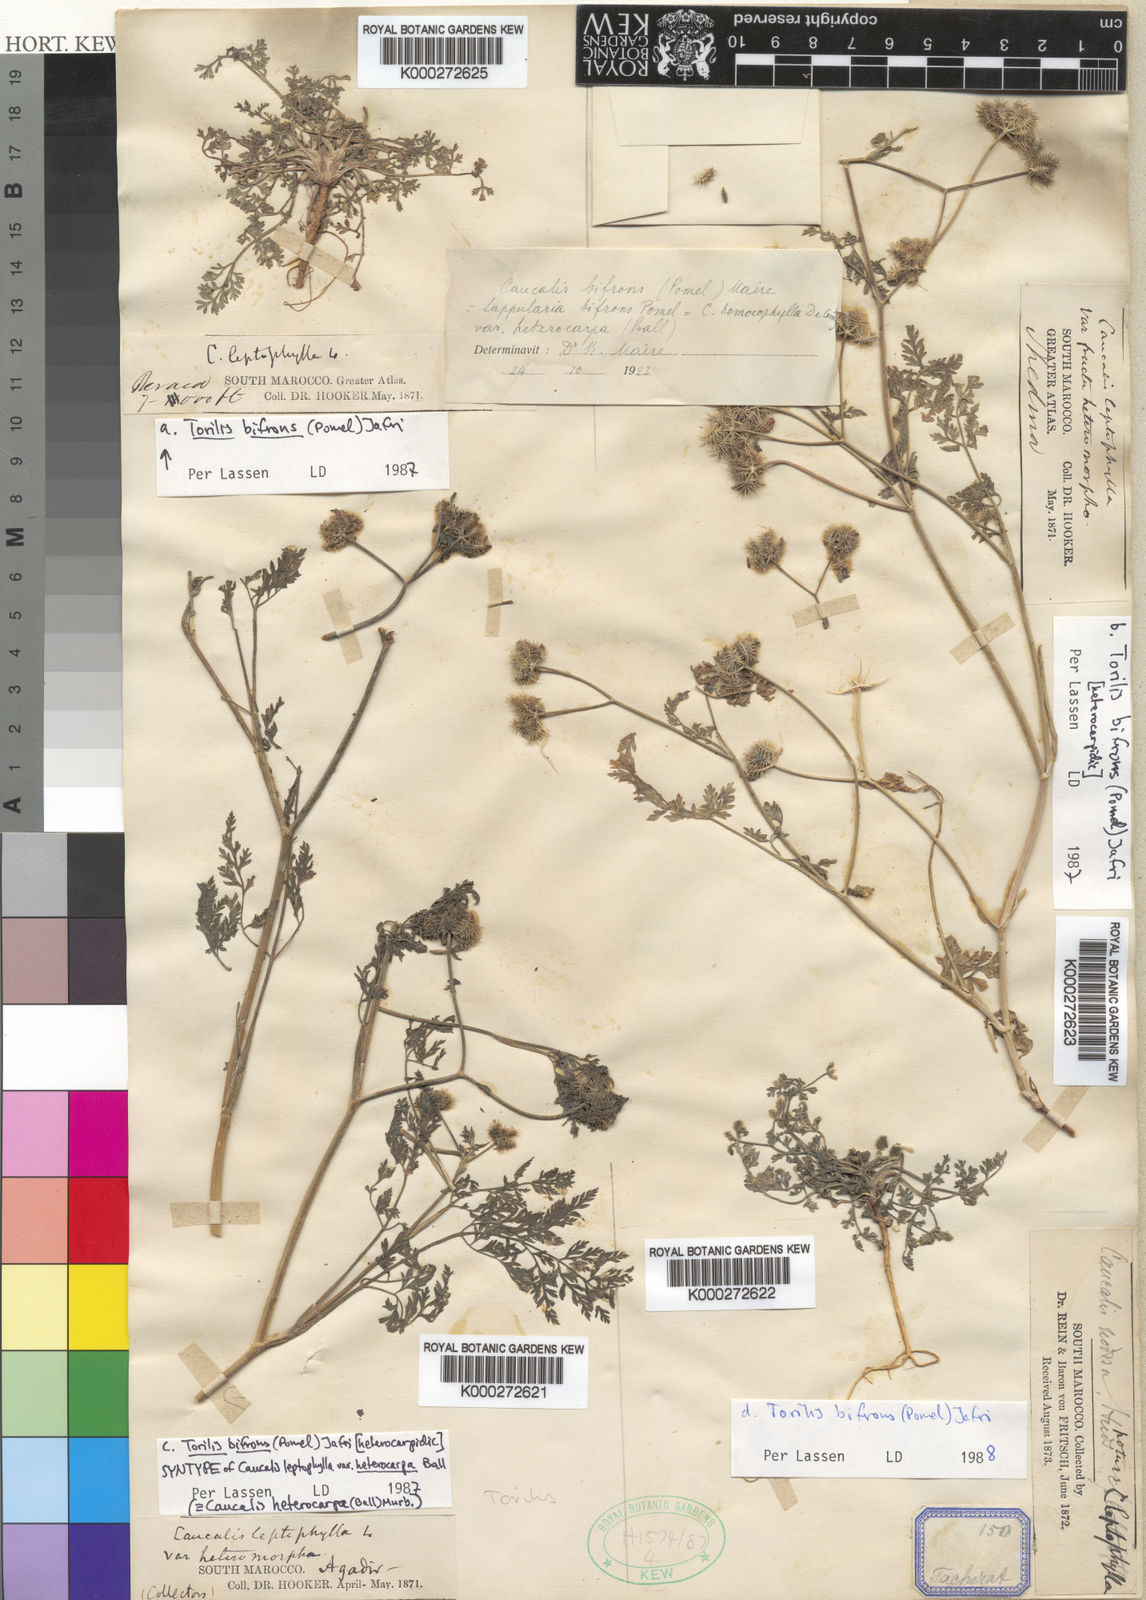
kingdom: Plantae
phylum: Tracheophyta
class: Magnoliopsida
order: Apiales
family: Apiaceae
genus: Torilis
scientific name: Torilis elongata
